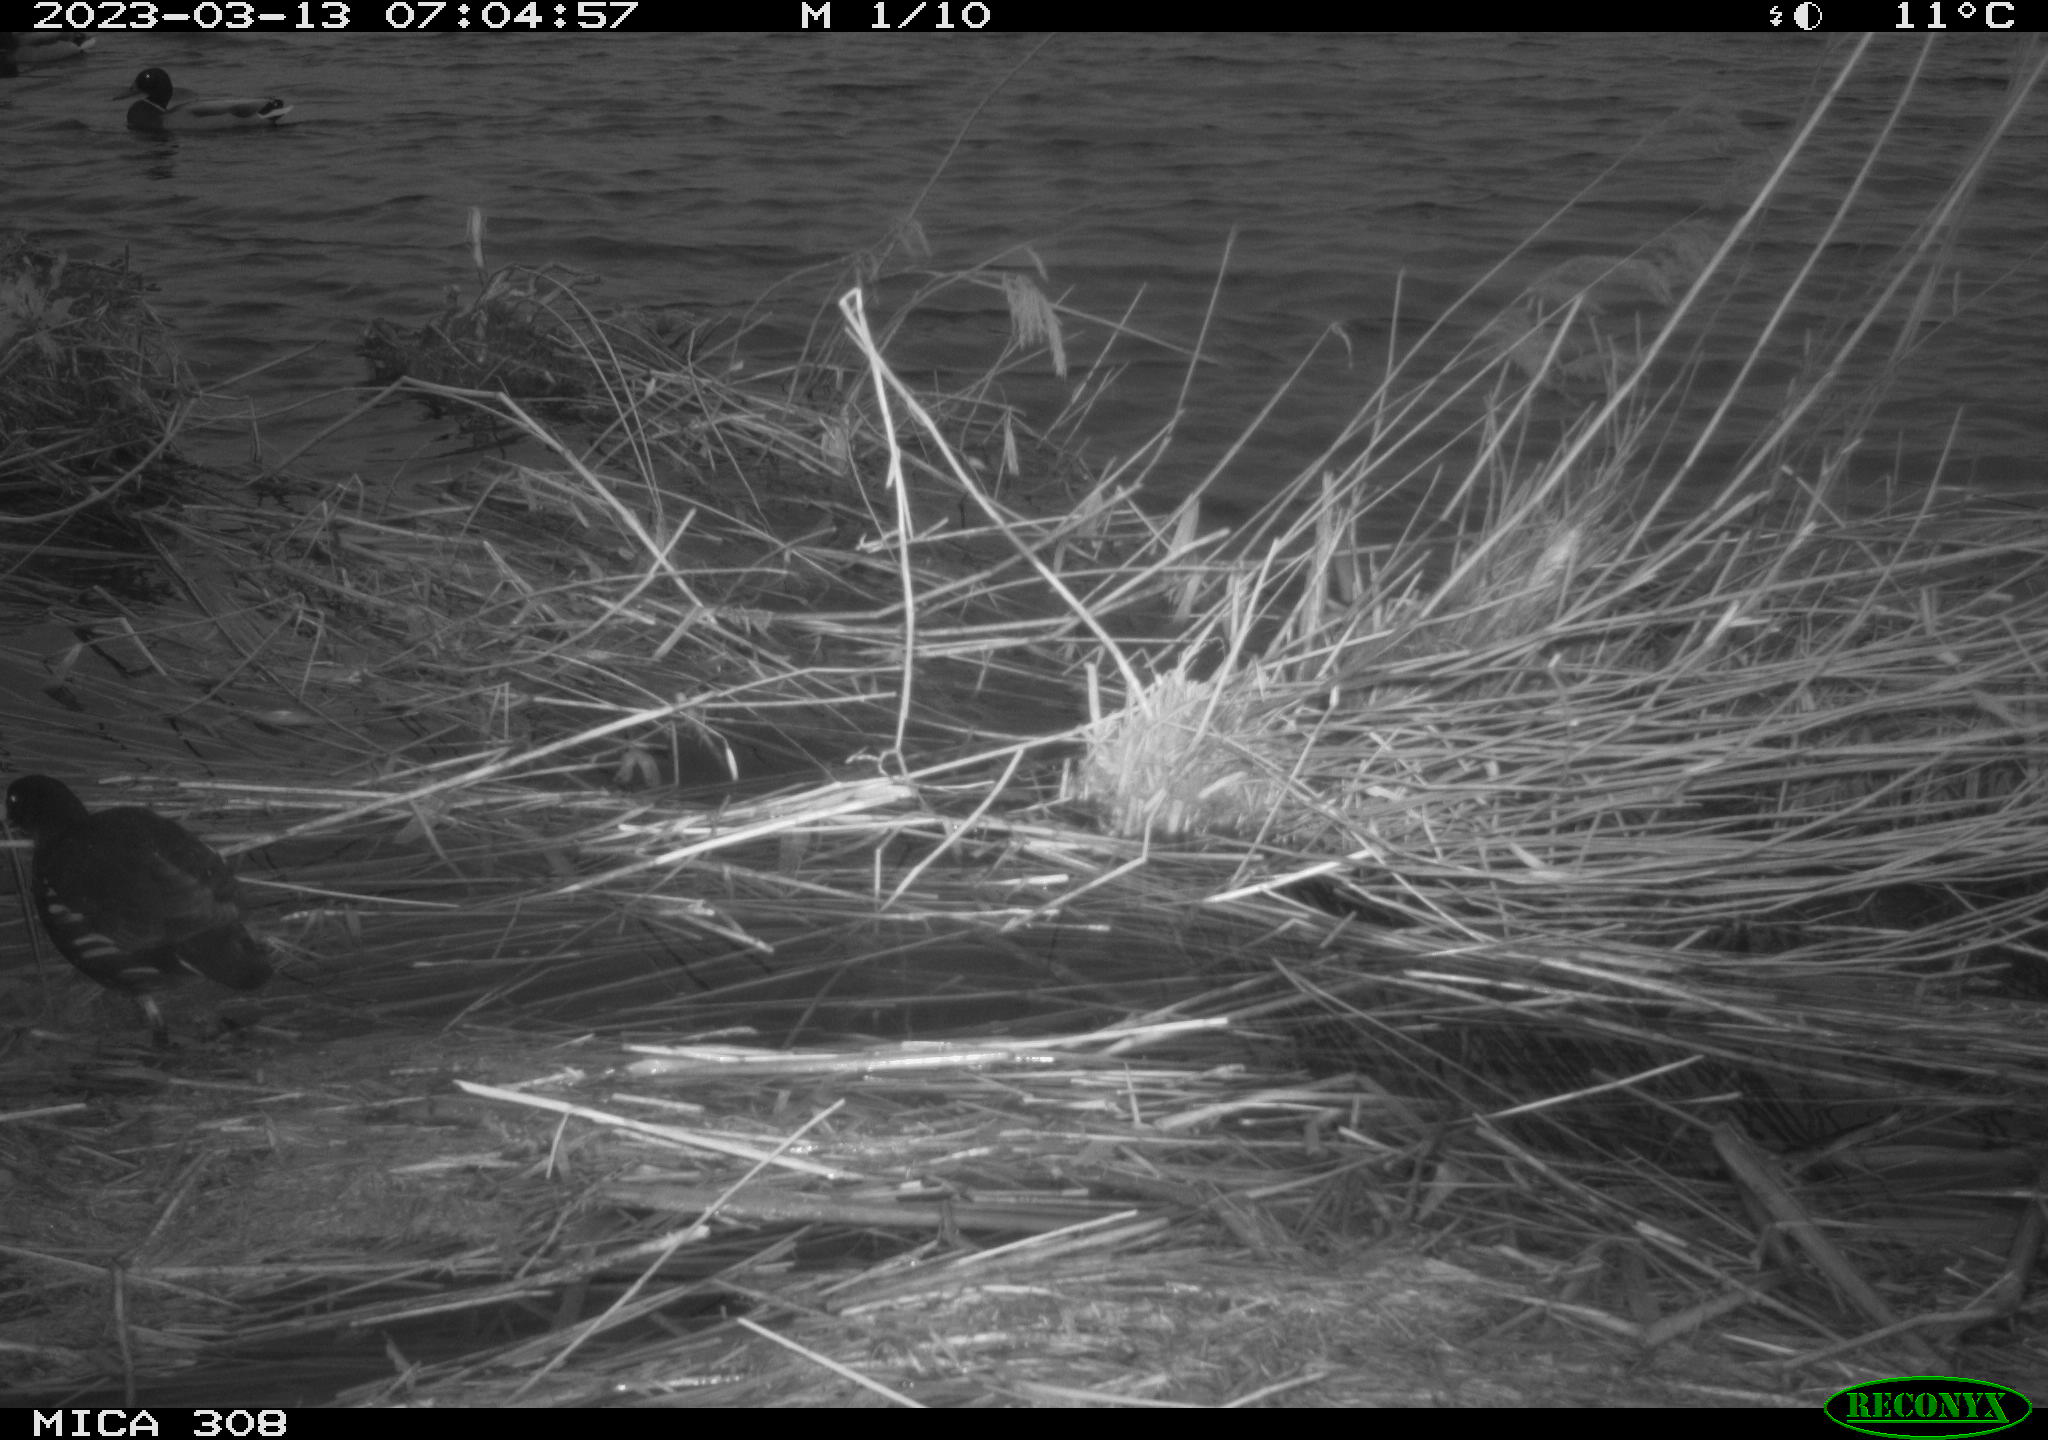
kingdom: Animalia
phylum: Chordata
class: Aves
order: Gruiformes
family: Rallidae
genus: Gallinula
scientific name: Gallinula chloropus
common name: Common moorhen
